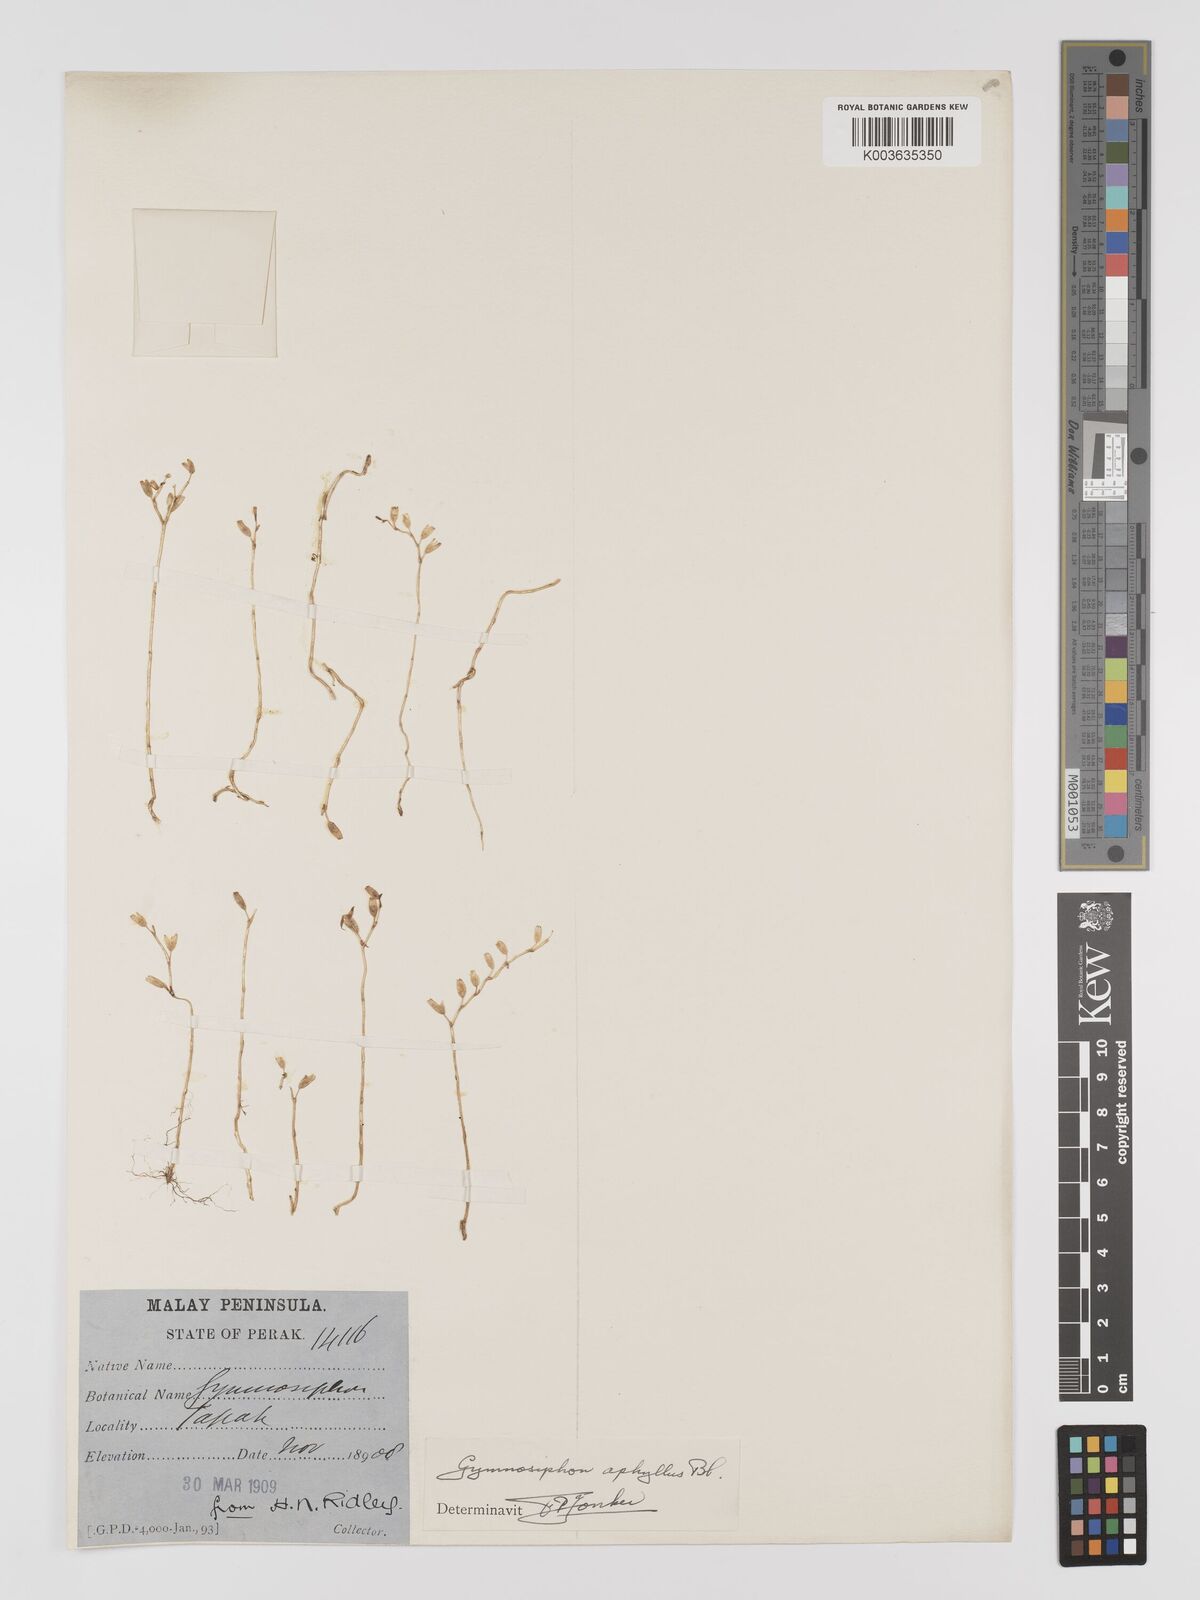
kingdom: Plantae
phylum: Tracheophyta
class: Liliopsida
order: Dioscoreales
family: Burmanniaceae
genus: Gymnosiphon
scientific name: Gymnosiphon aphyllus
